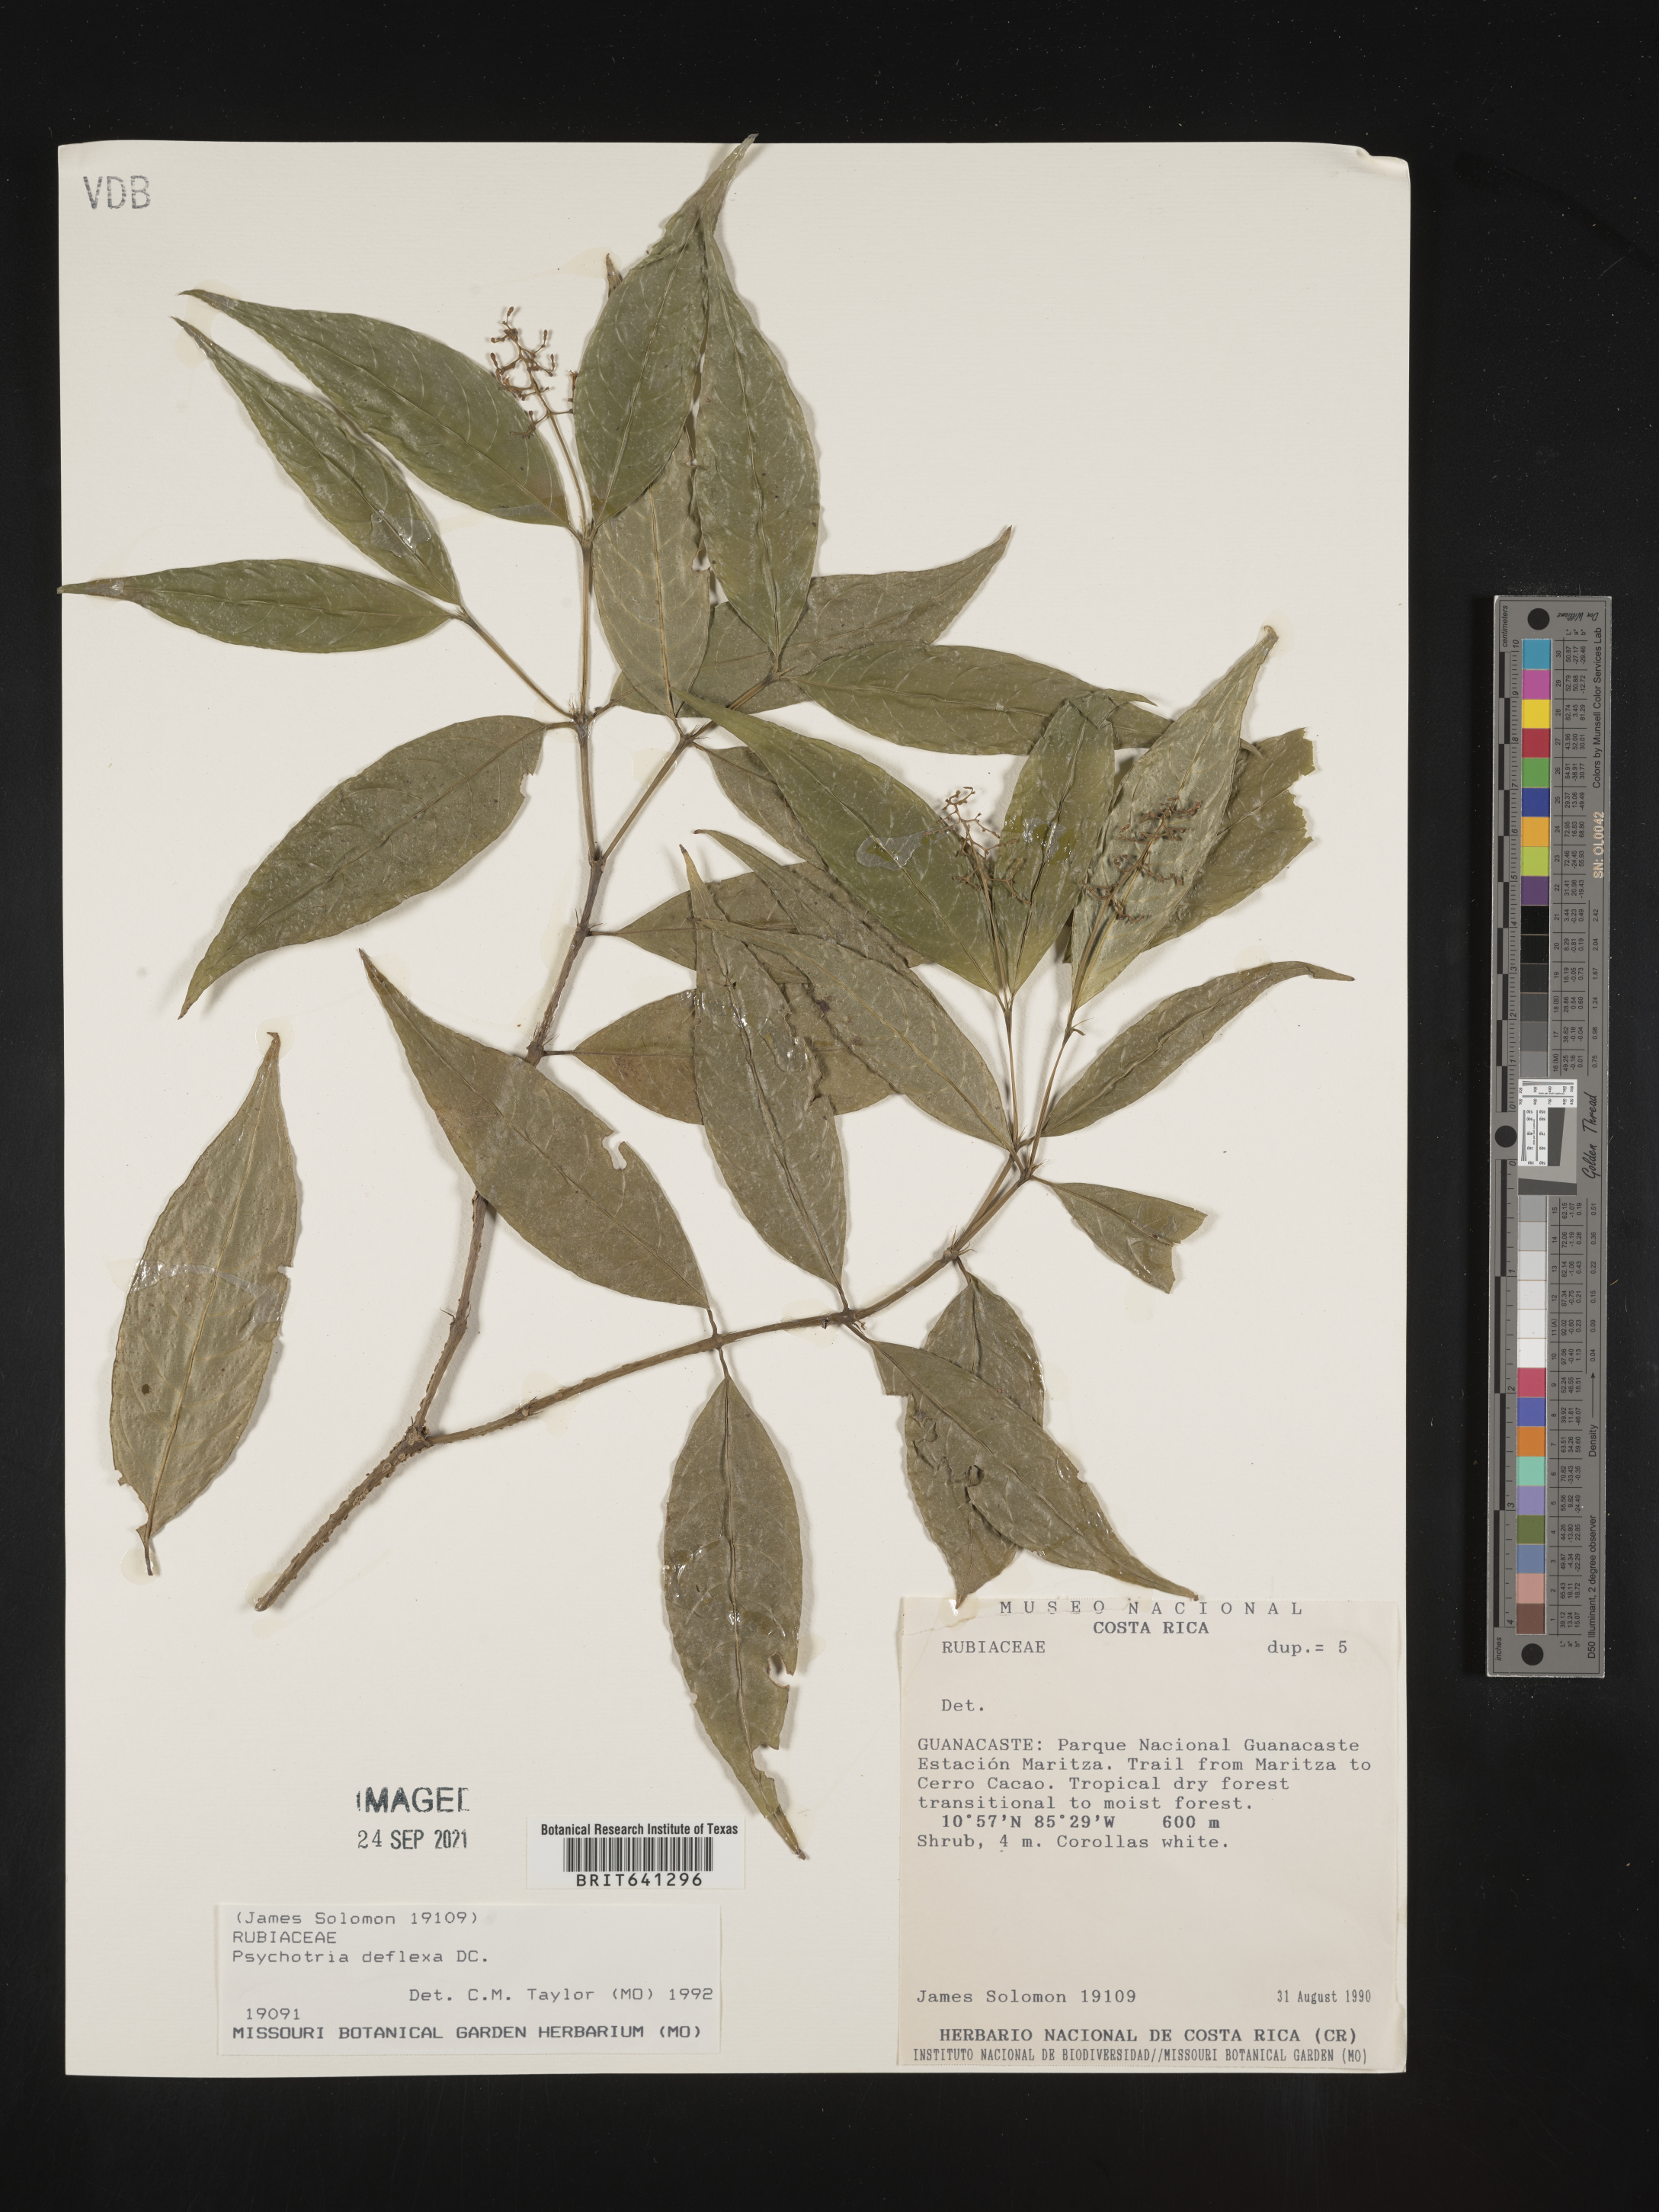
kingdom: Plantae
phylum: Tracheophyta
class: Magnoliopsida
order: Gentianales
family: Rubiaceae
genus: Psychotria
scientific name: Psychotria
